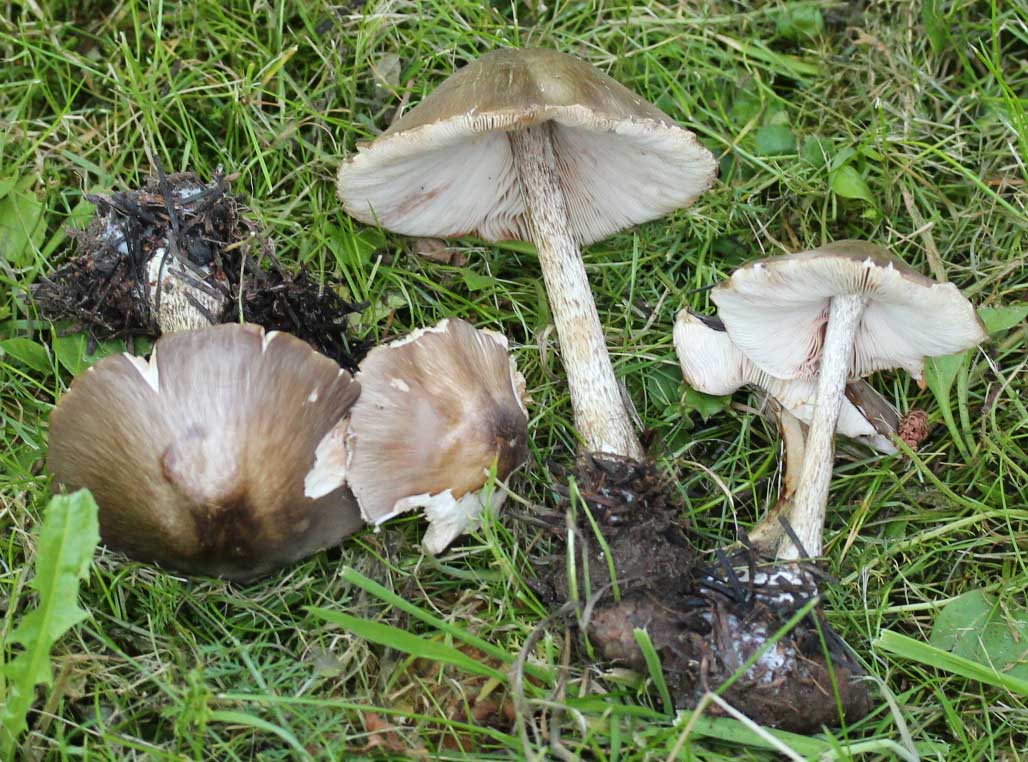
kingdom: Fungi
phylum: Basidiomycota
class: Agaricomycetes
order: Agaricales
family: Pluteaceae
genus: Pluteus
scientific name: Pluteus cervinus
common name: sodfarvet skærmhat
